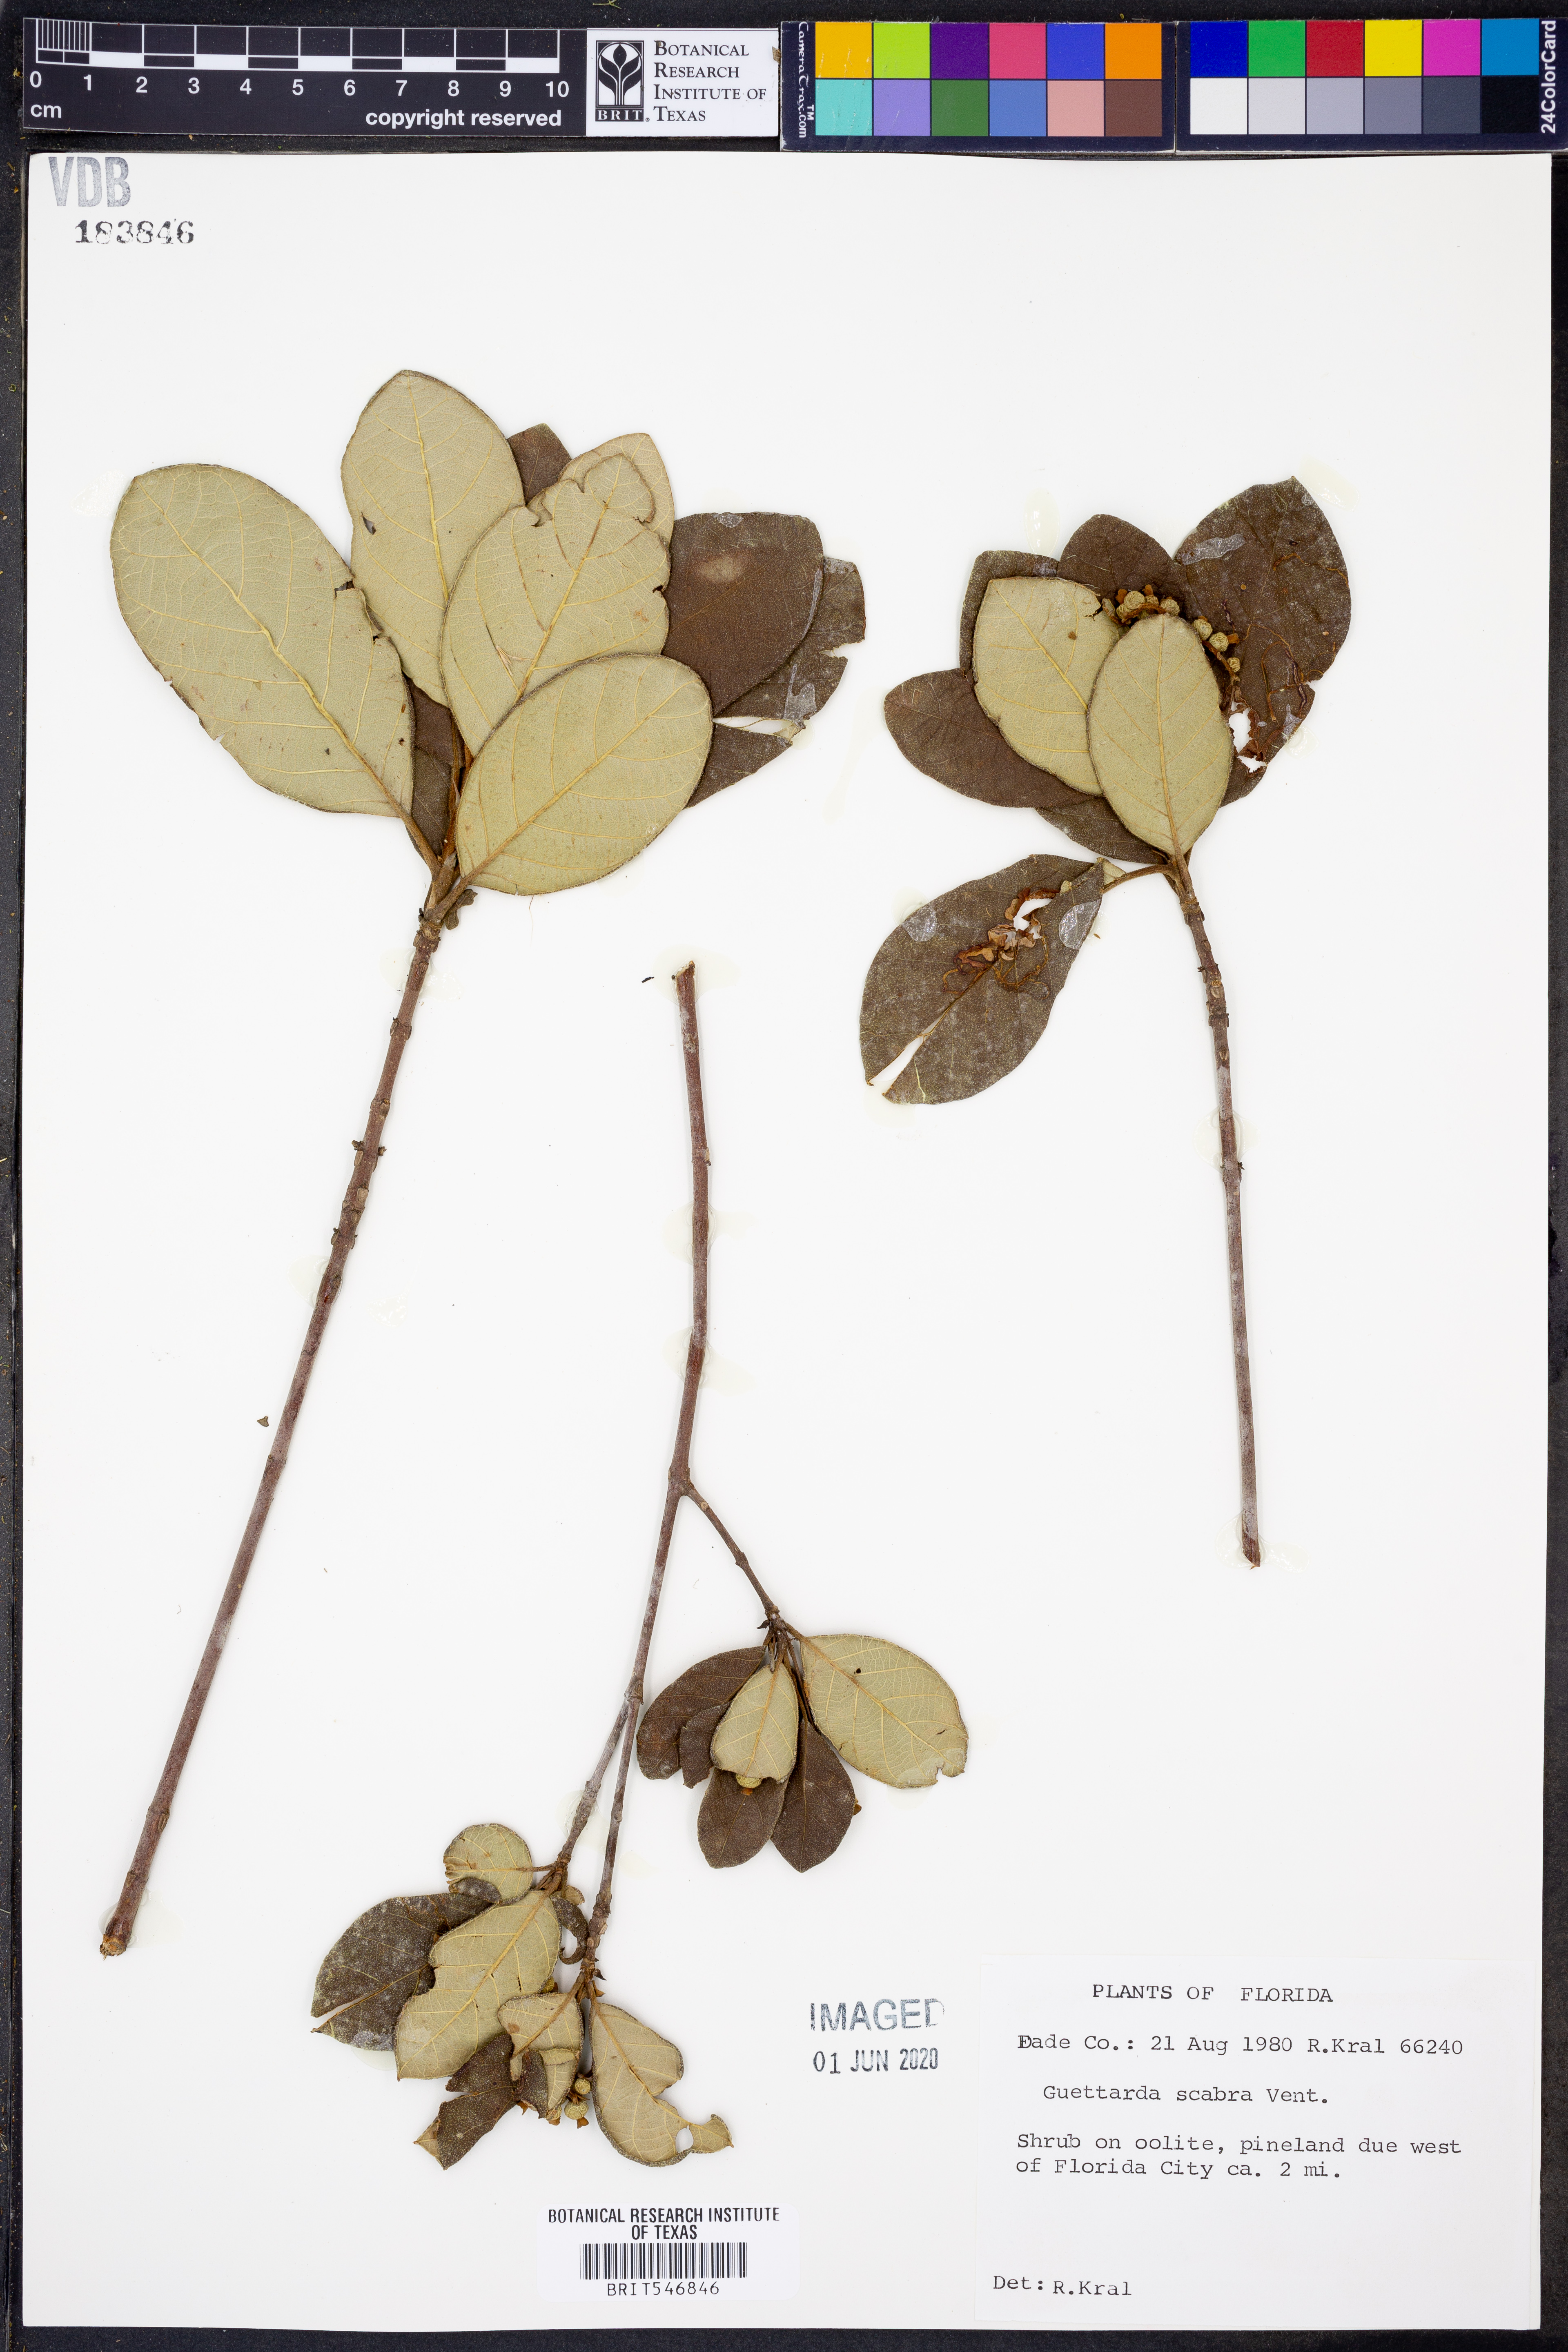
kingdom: Plantae
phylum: Tracheophyta
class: Magnoliopsida
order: Gentianales
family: Rubiaceae
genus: Guettarda
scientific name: Guettarda scabra
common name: Pigeon bay
